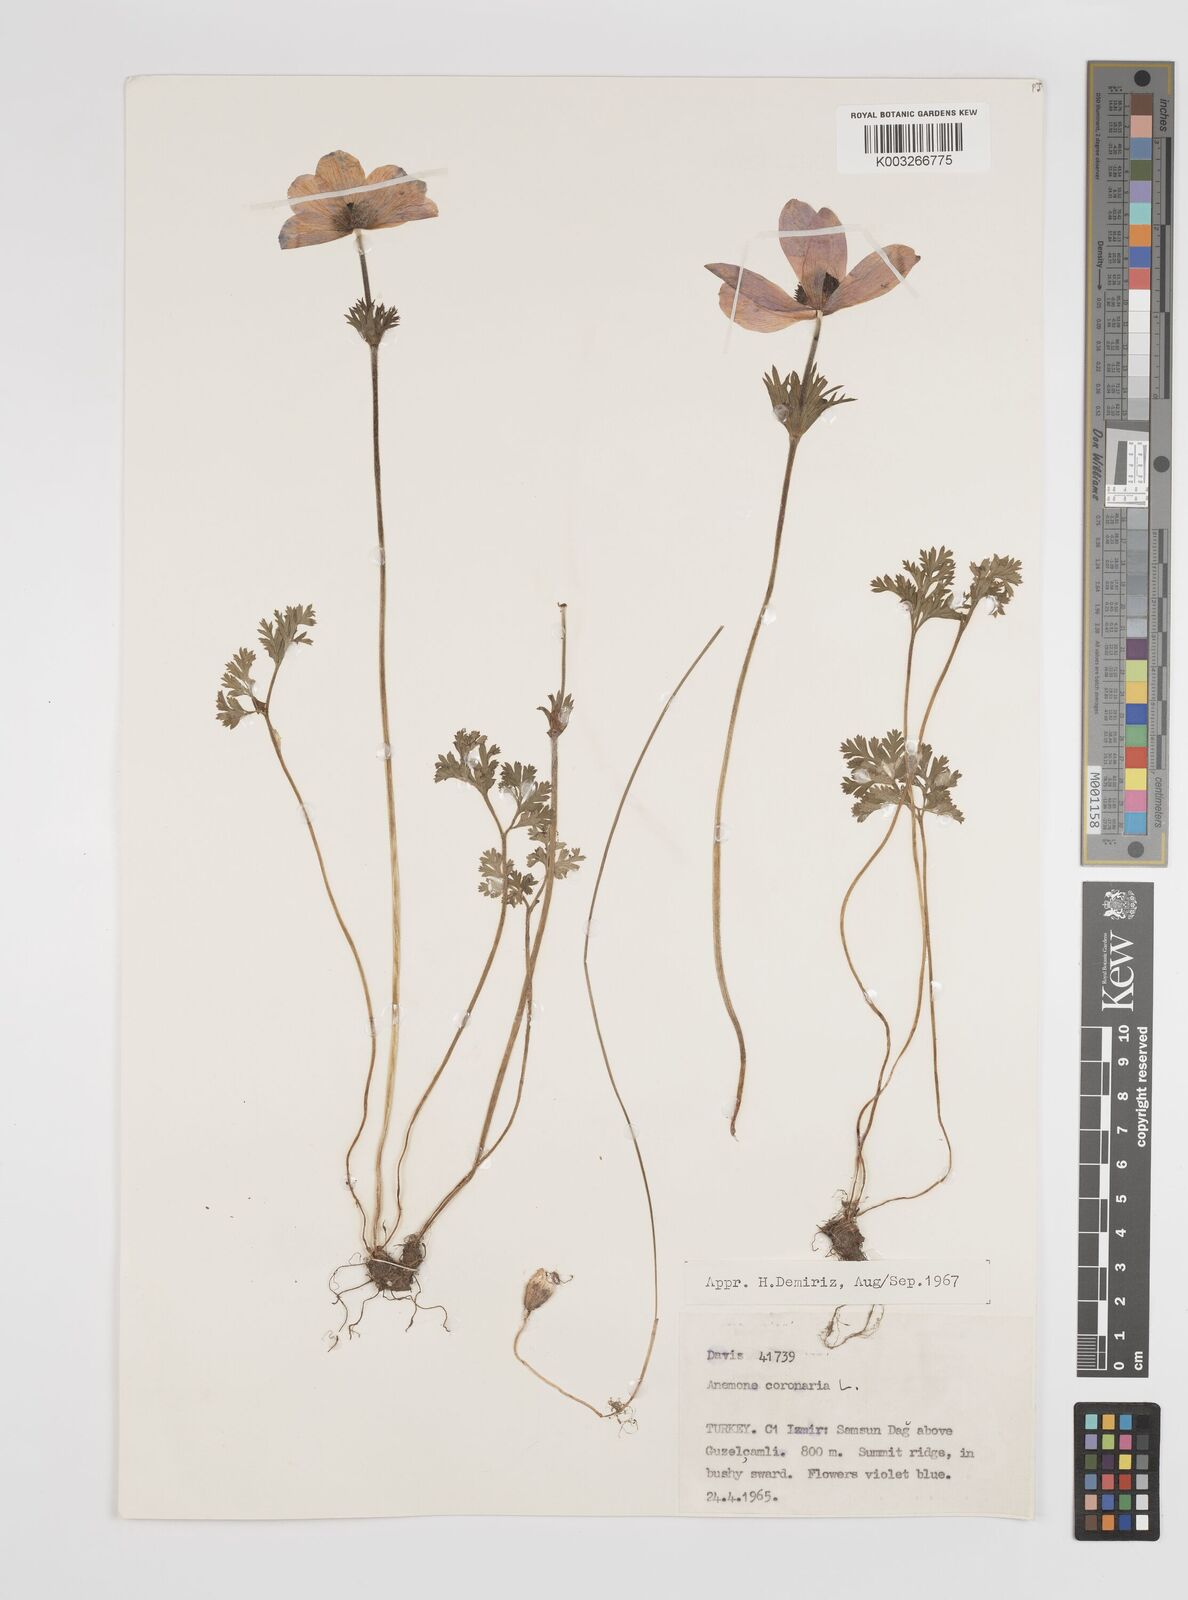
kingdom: Plantae
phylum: Tracheophyta
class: Magnoliopsida
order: Ranunculales
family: Ranunculaceae
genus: Anemone
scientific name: Anemone coronaria
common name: Poppy anemone
